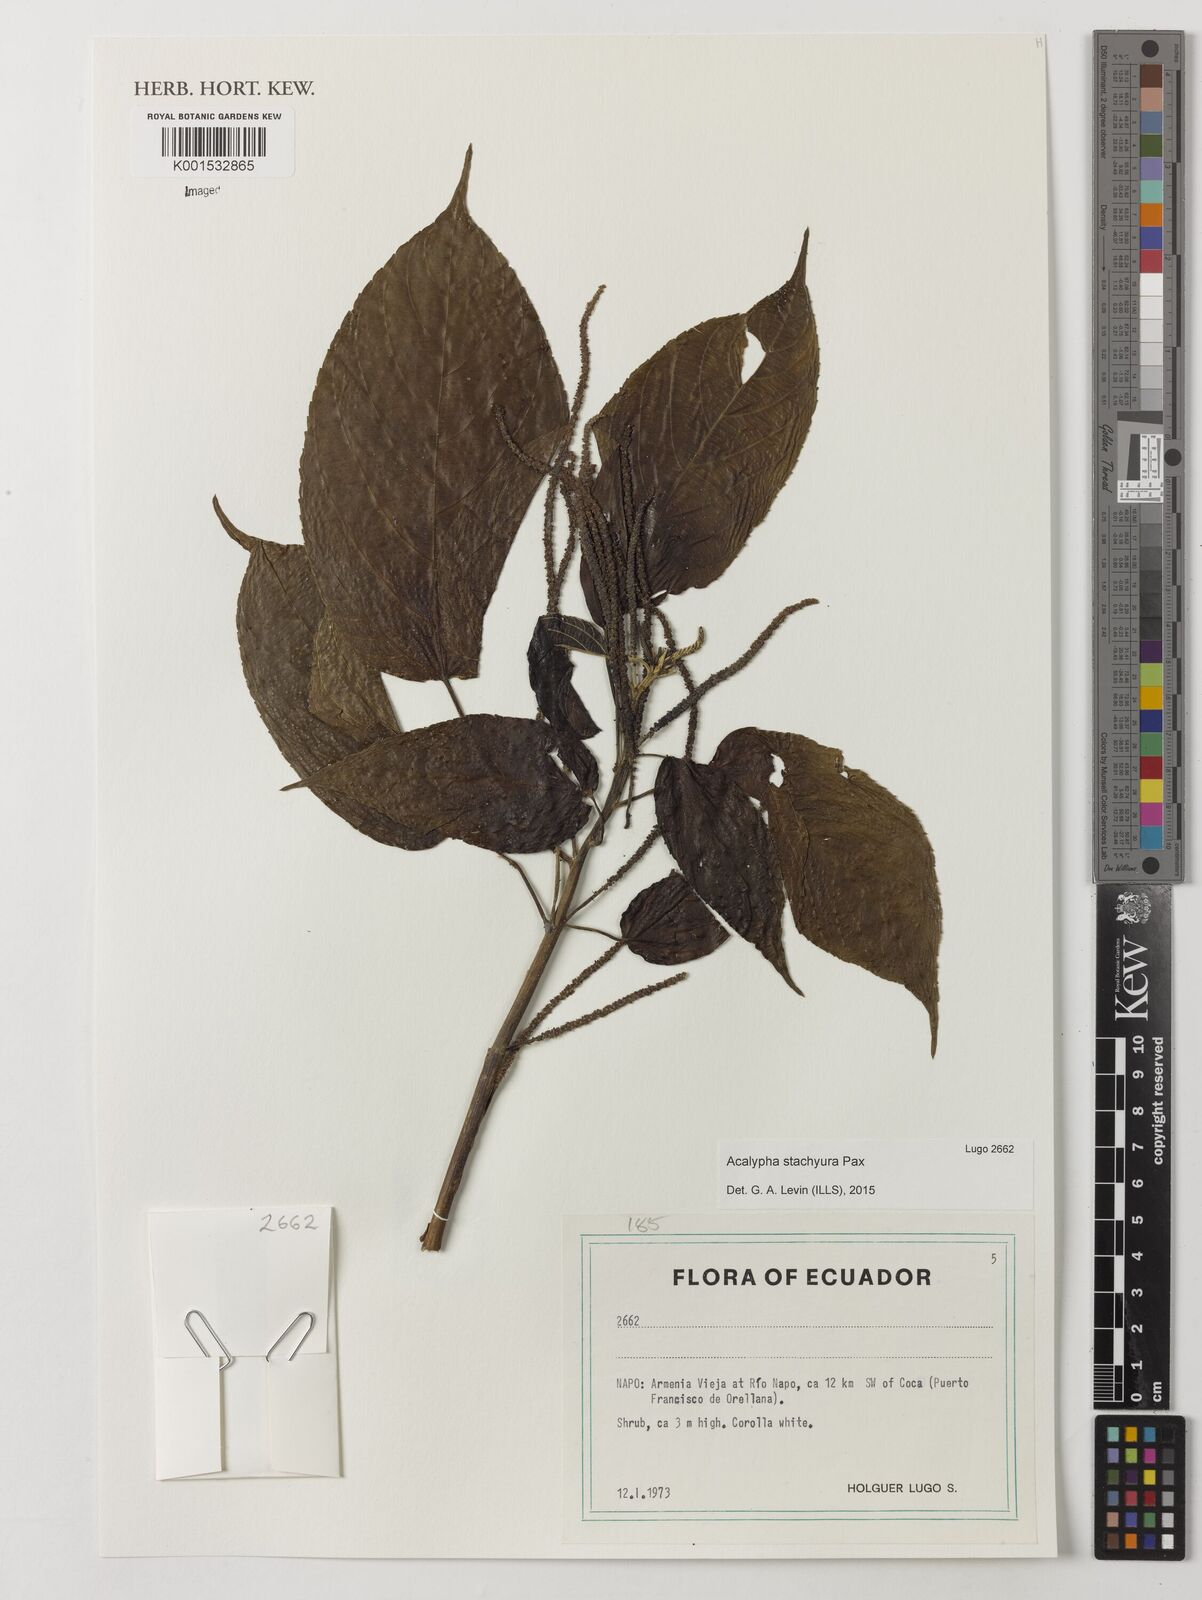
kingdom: Plantae
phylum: Tracheophyta
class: Magnoliopsida
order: Malpighiales
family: Euphorbiaceae
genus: Acalypha
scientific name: Acalypha stachyura
